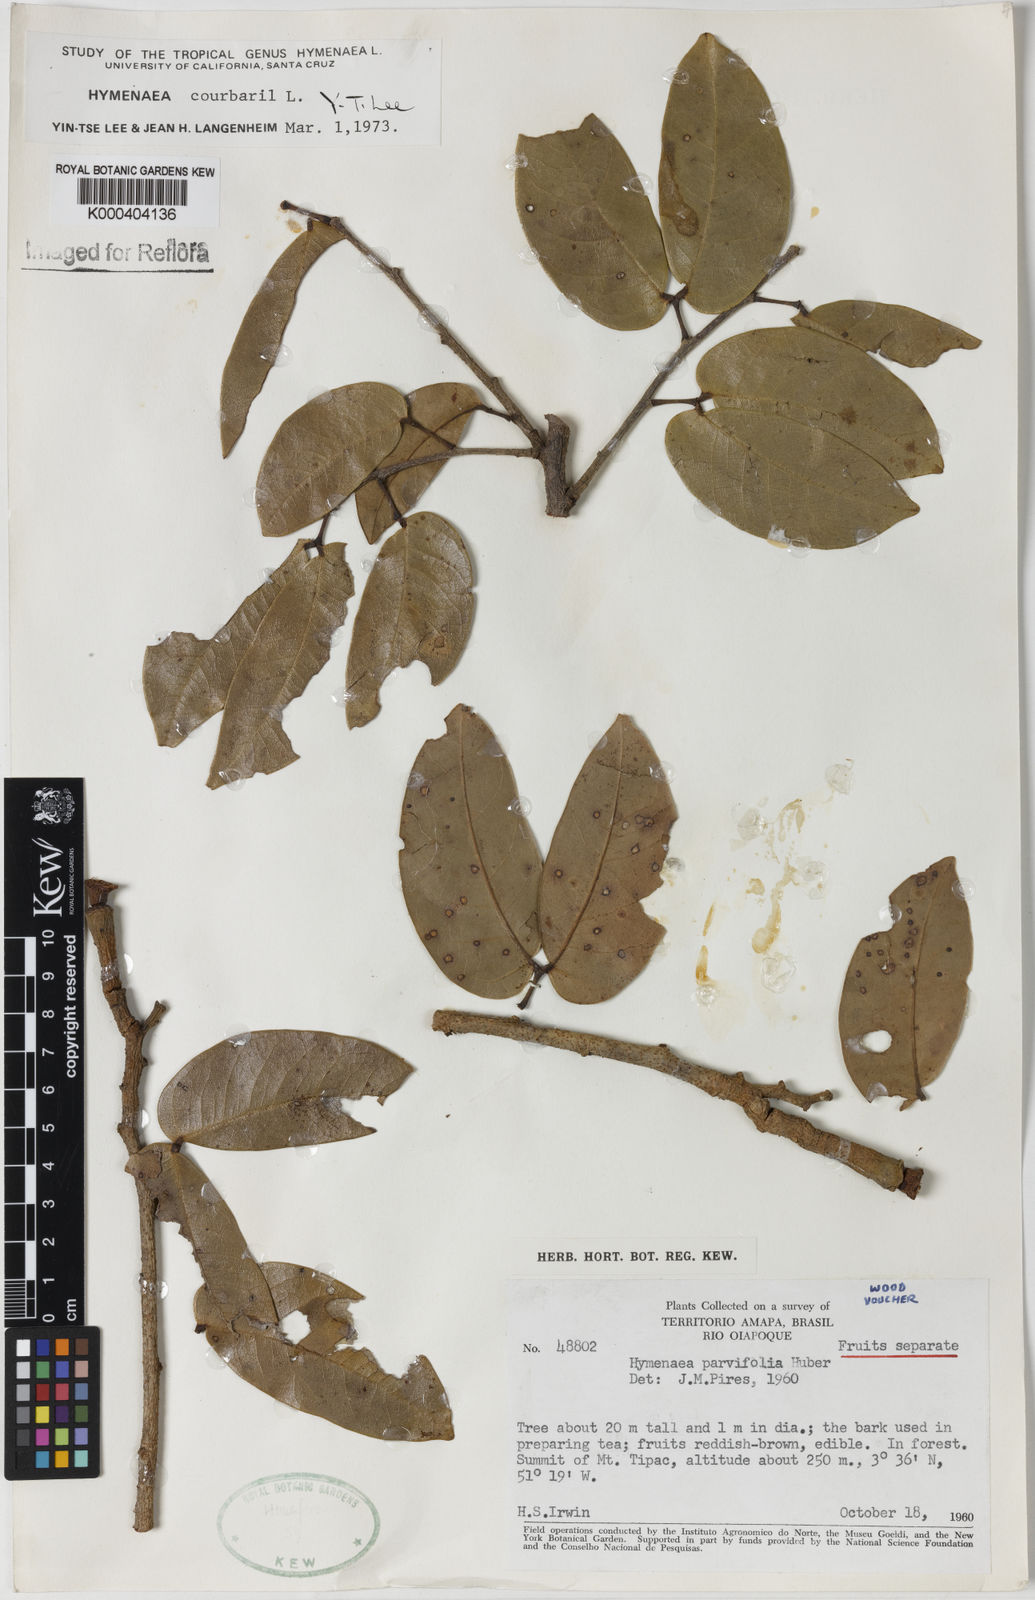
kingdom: Plantae
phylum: Tracheophyta
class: Magnoliopsida
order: Fabales
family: Fabaceae
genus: Hymenaea
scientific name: Hymenaea courbaril
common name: Brazilian copal
